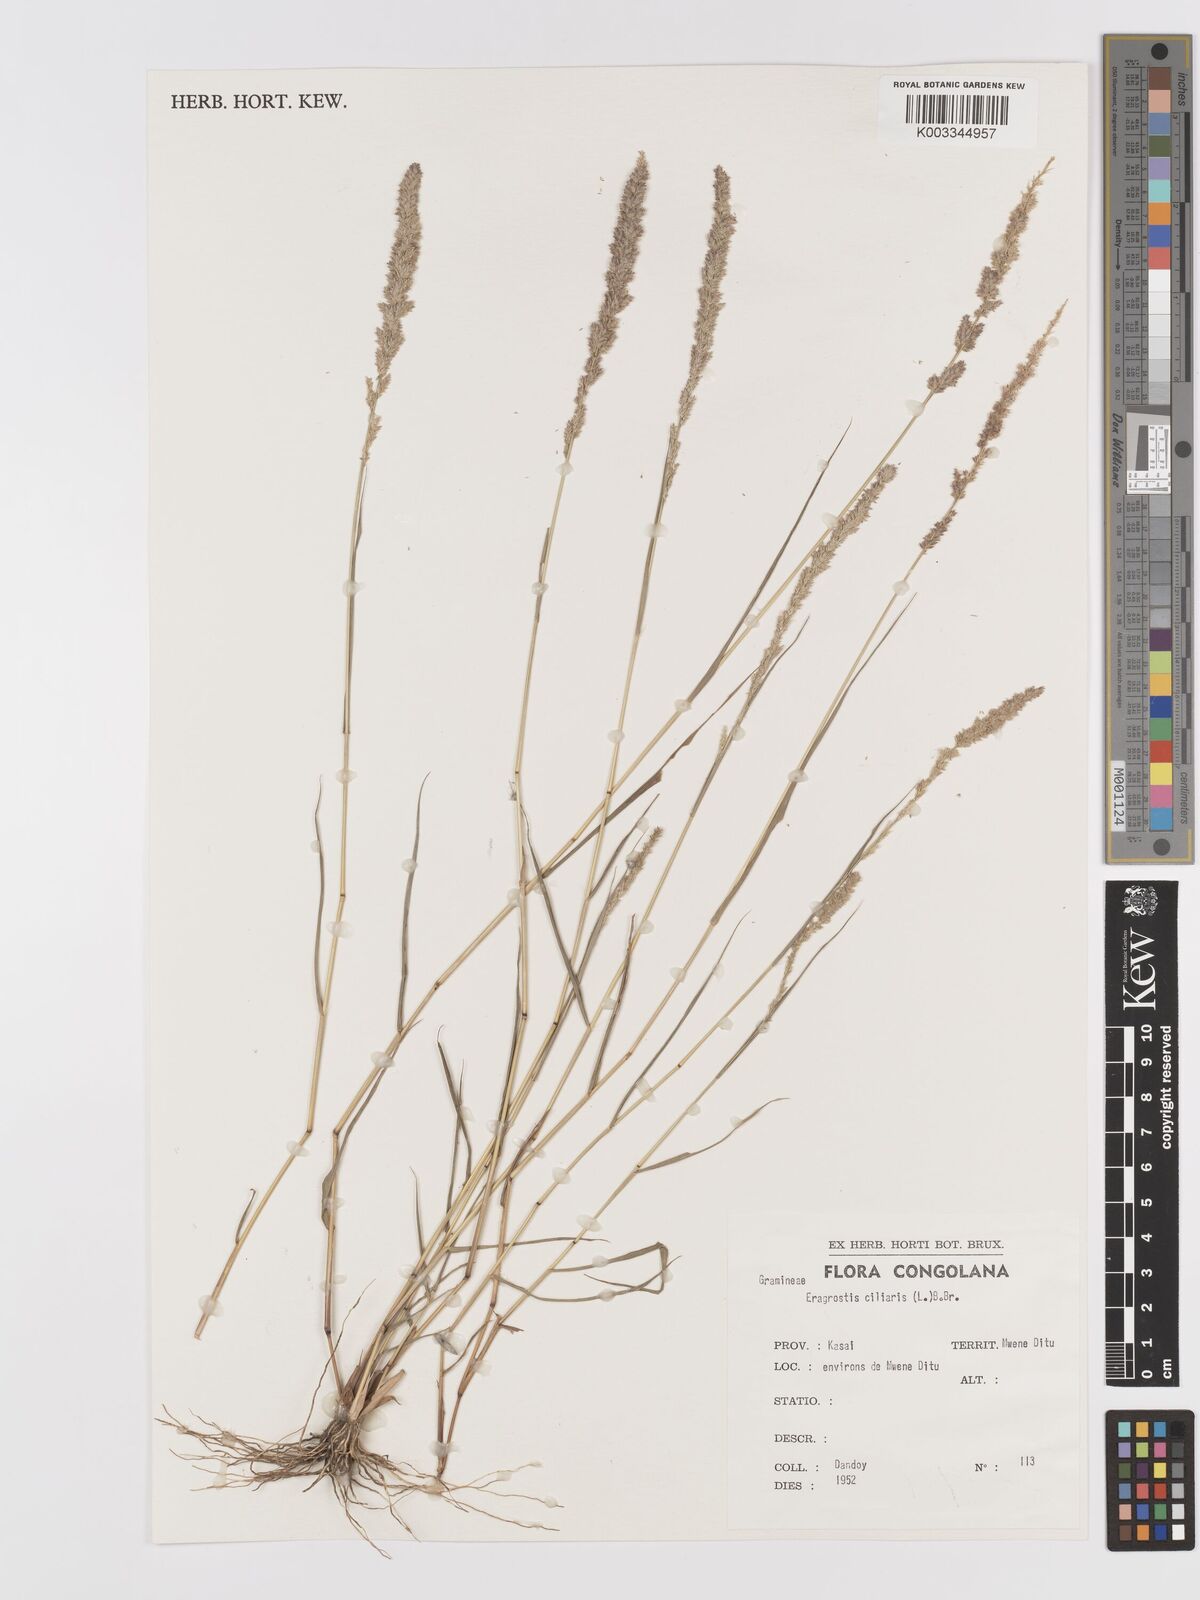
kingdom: Plantae
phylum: Tracheophyta
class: Liliopsida
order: Poales
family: Poaceae
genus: Eragrostis
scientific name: Eragrostis ciliaris
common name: Gophertail lovegrass
